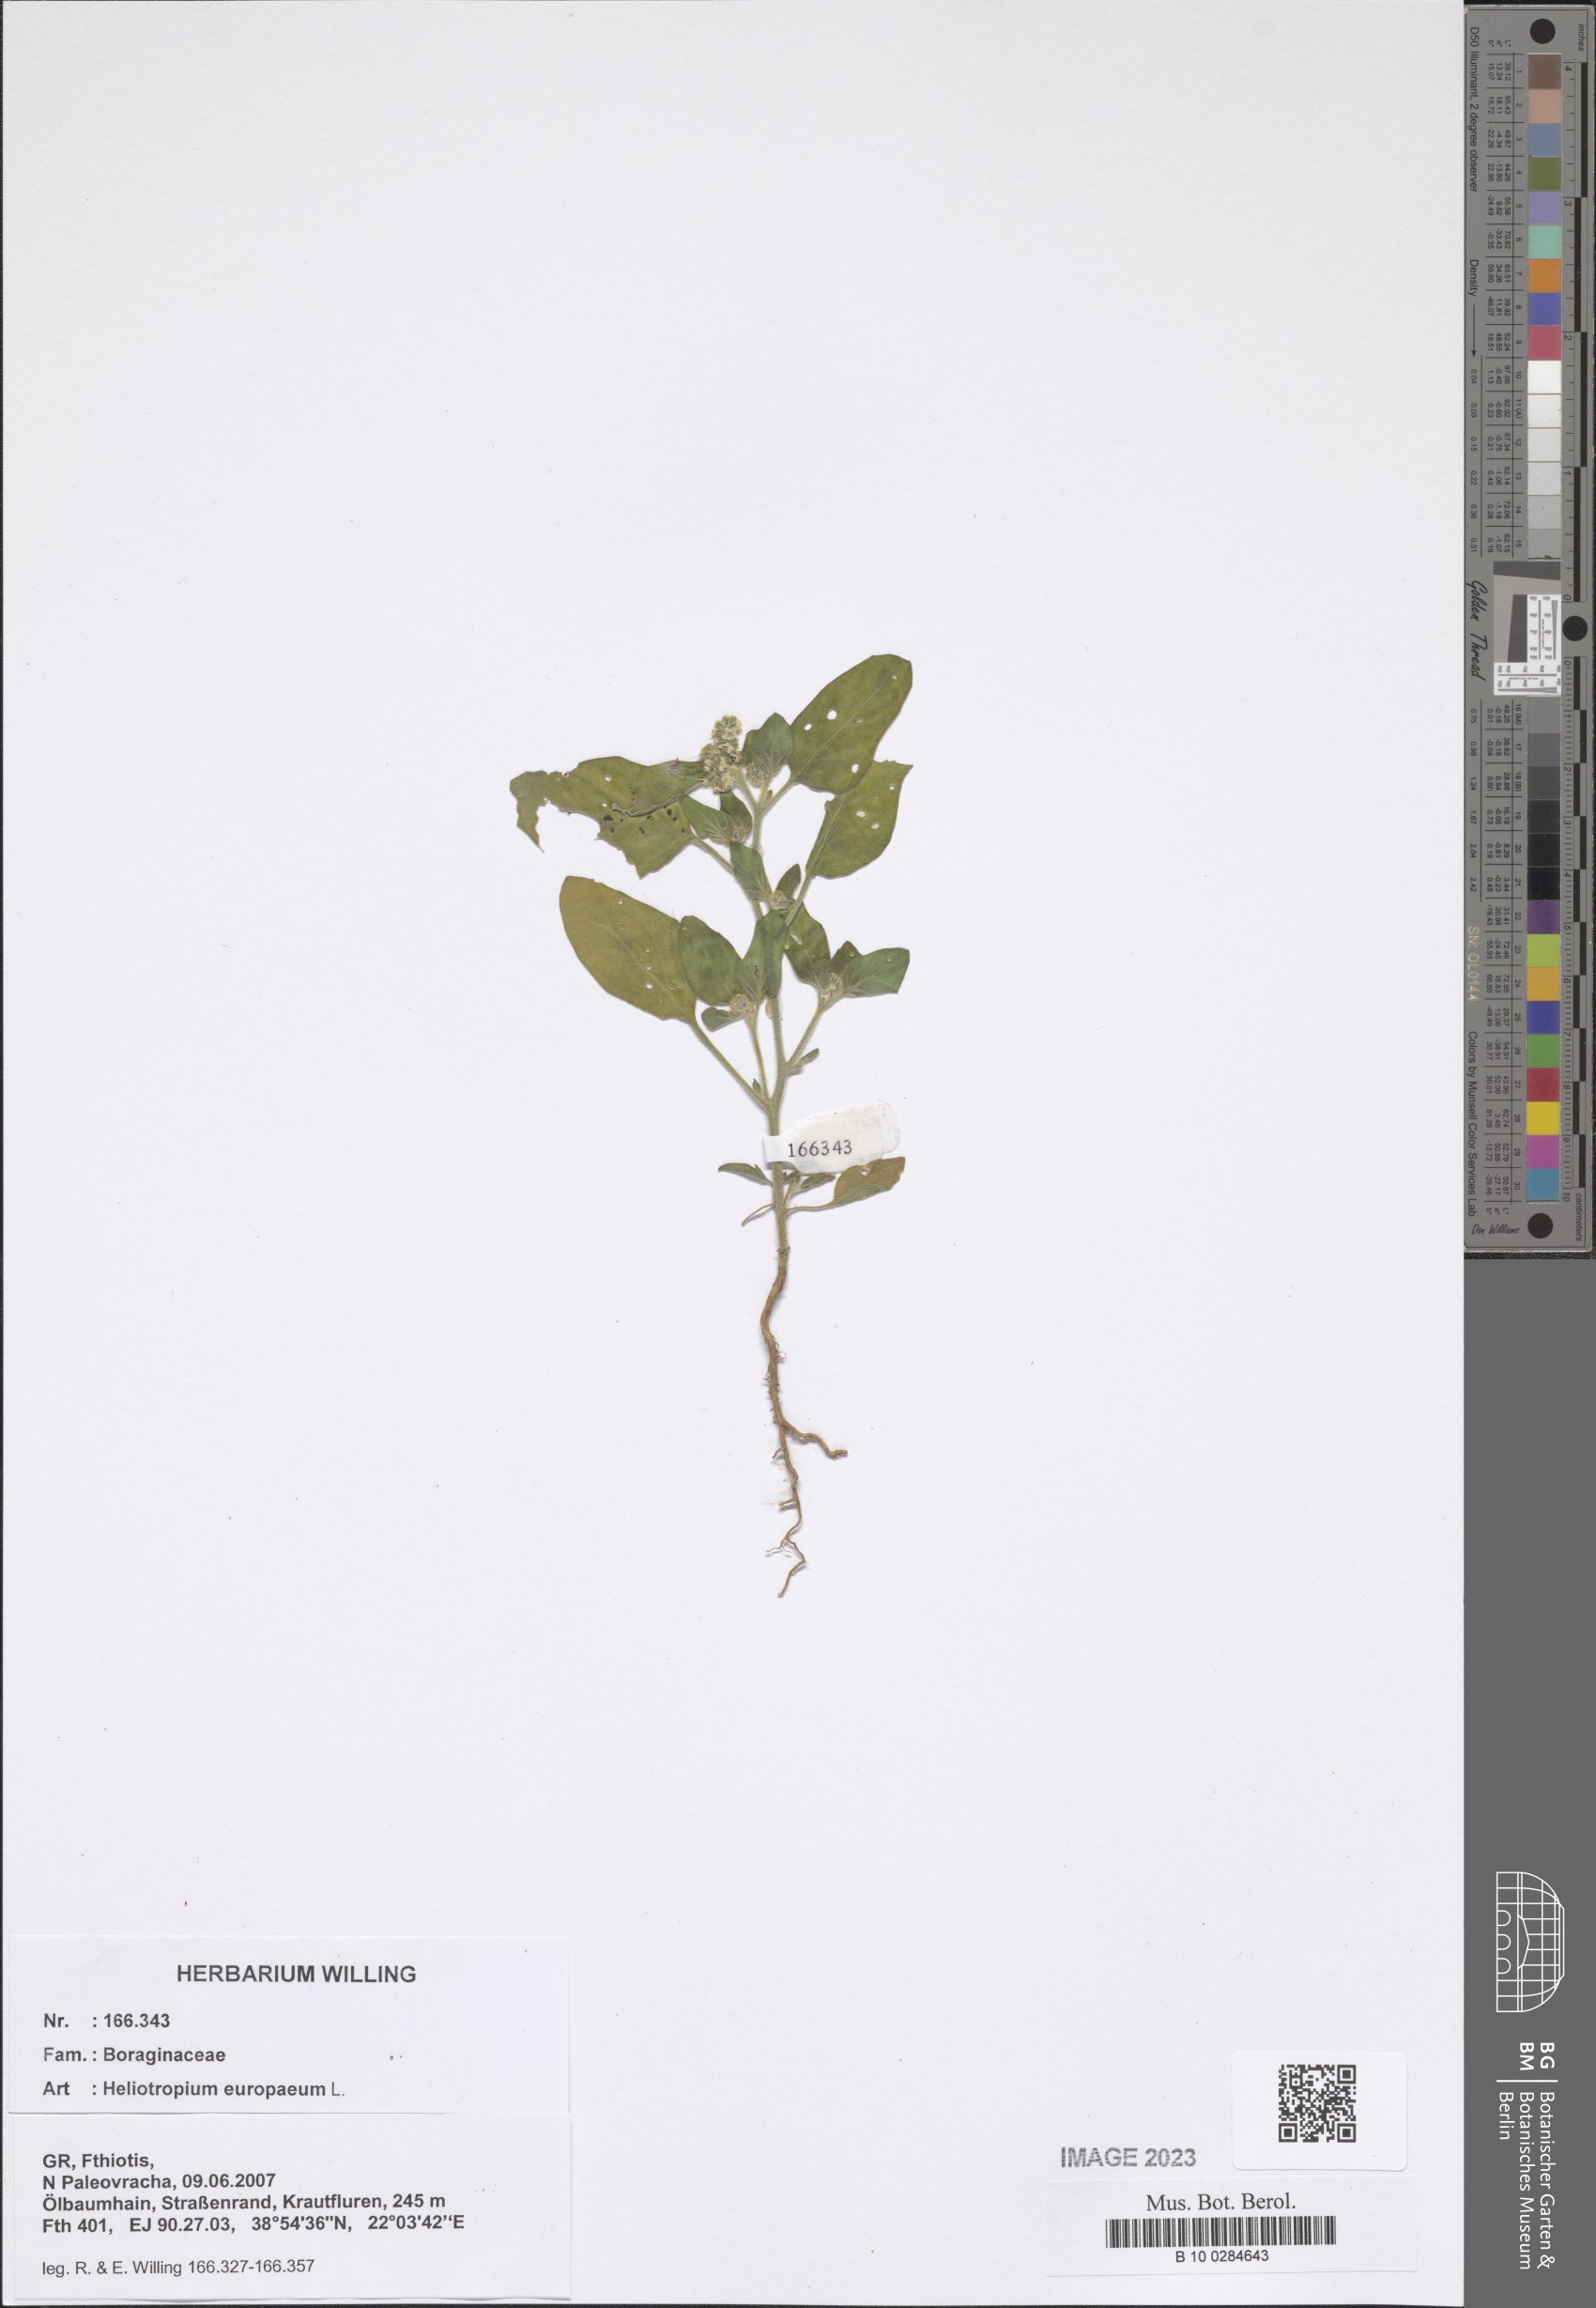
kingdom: Plantae
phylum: Tracheophyta
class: Magnoliopsida
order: Boraginales
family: Heliotropiaceae
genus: Heliotropium
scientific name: Heliotropium europaeum
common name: European heliotrope
